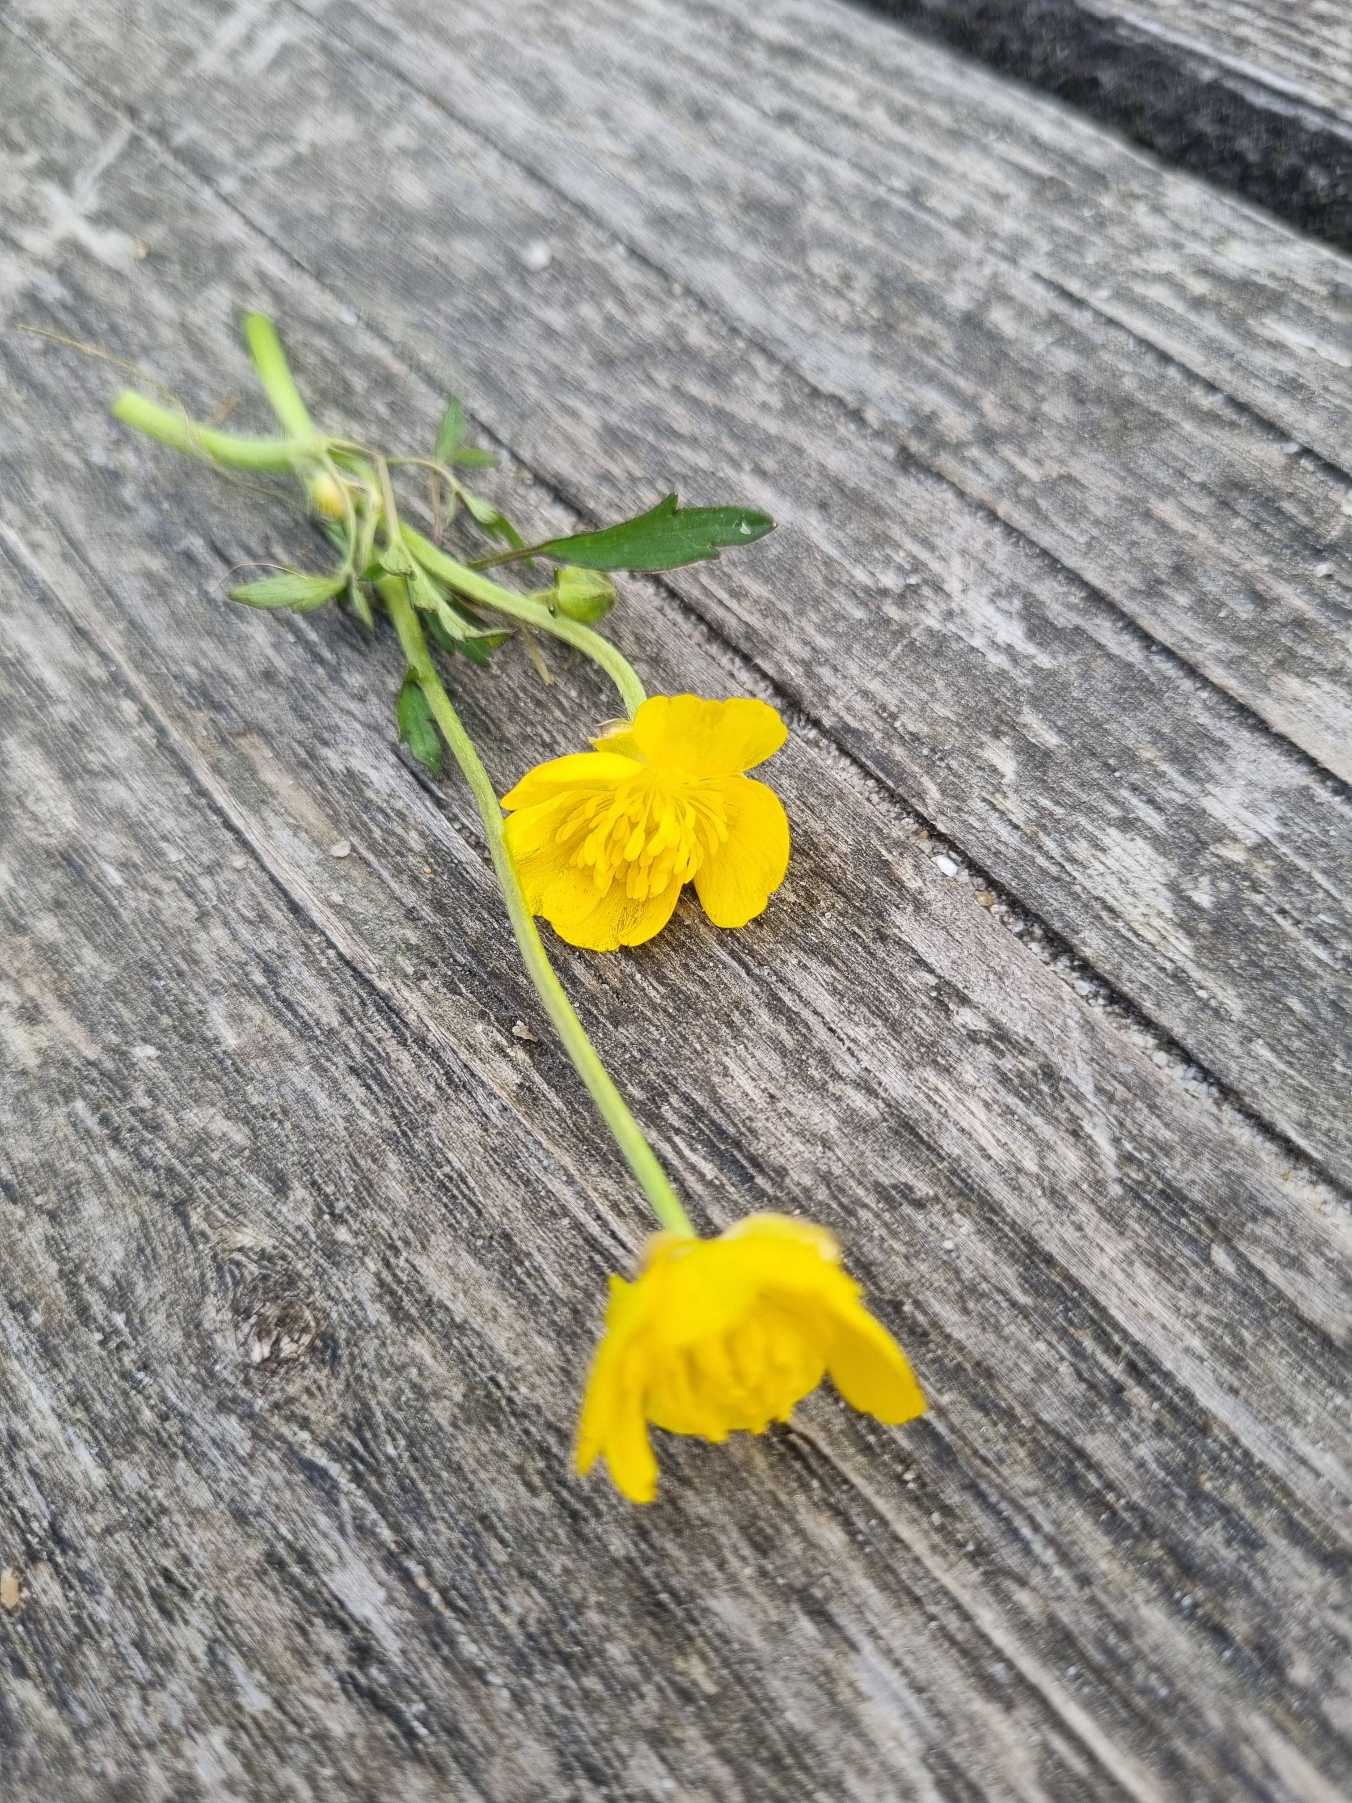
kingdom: Plantae
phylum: Tracheophyta
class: Magnoliopsida
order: Ranunculales
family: Ranunculaceae
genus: Ranunculus
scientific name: Ranunculus repens
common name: Lav ranunkel
